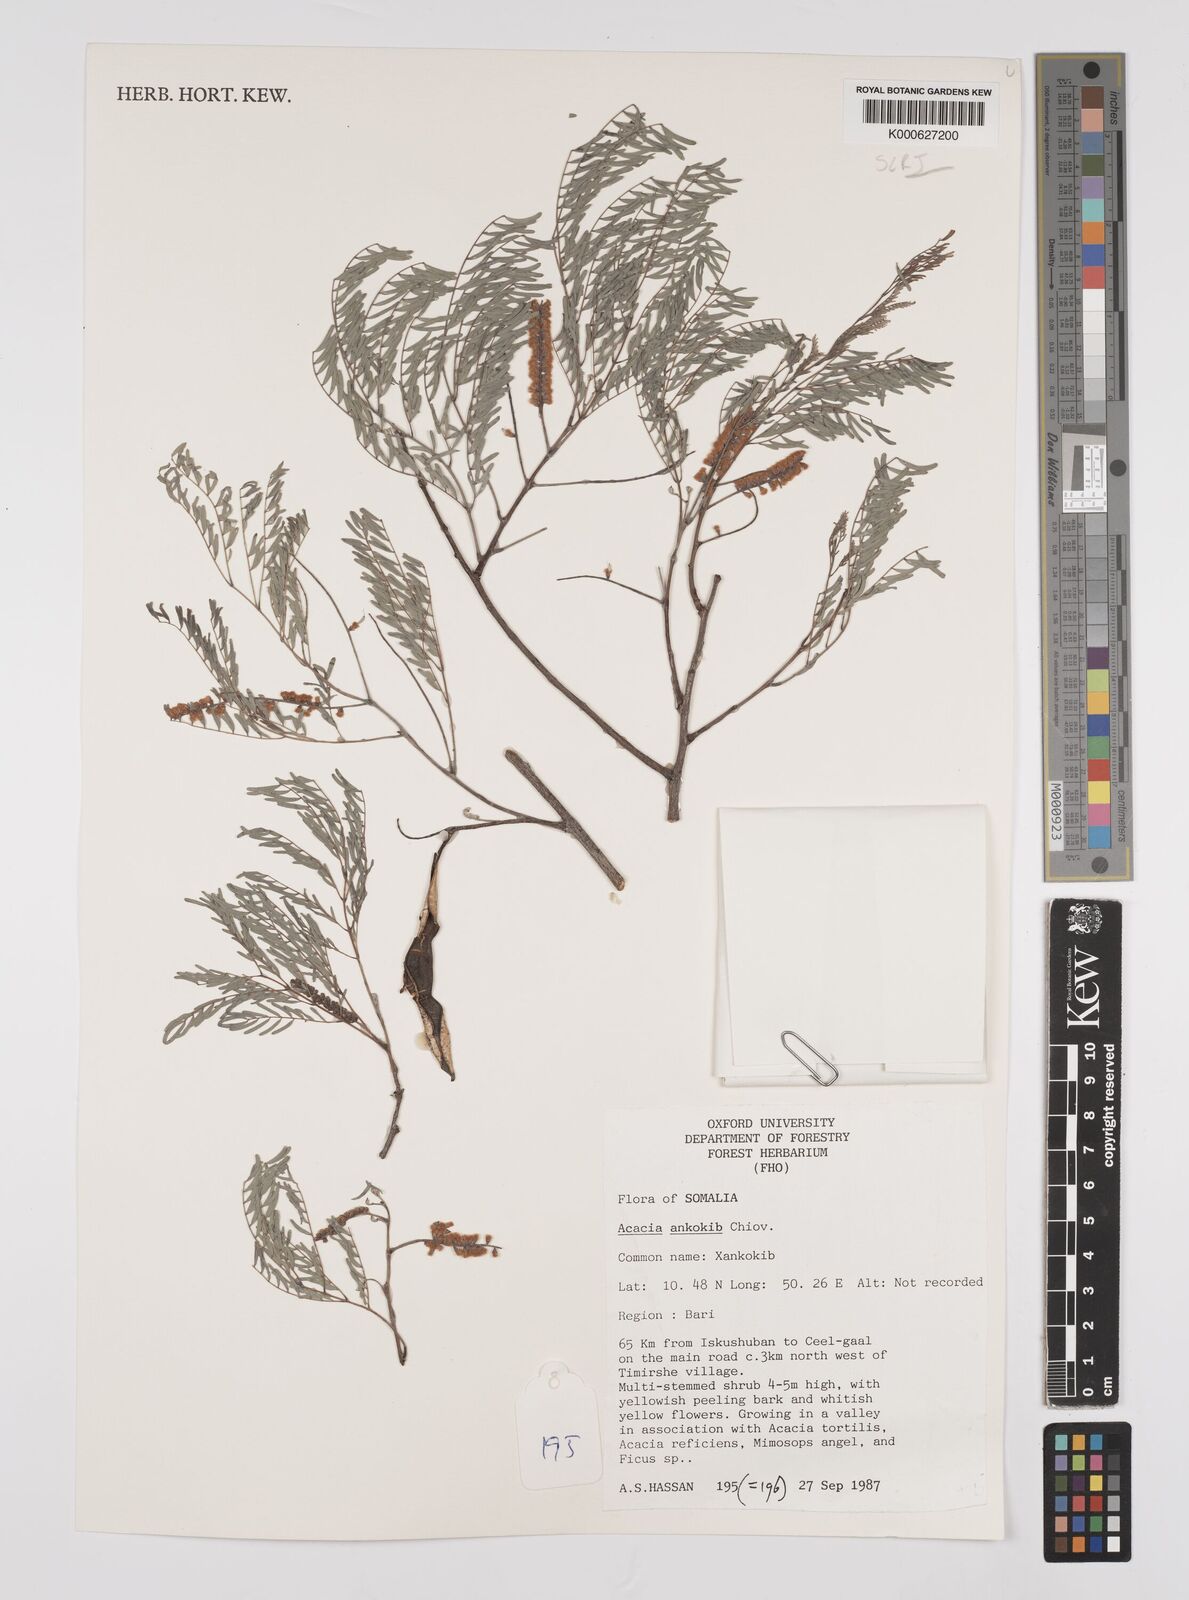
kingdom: Plantae
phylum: Tracheophyta
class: Magnoliopsida
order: Fabales
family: Fabaceae
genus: Senegalia
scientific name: Senegalia ankokib
